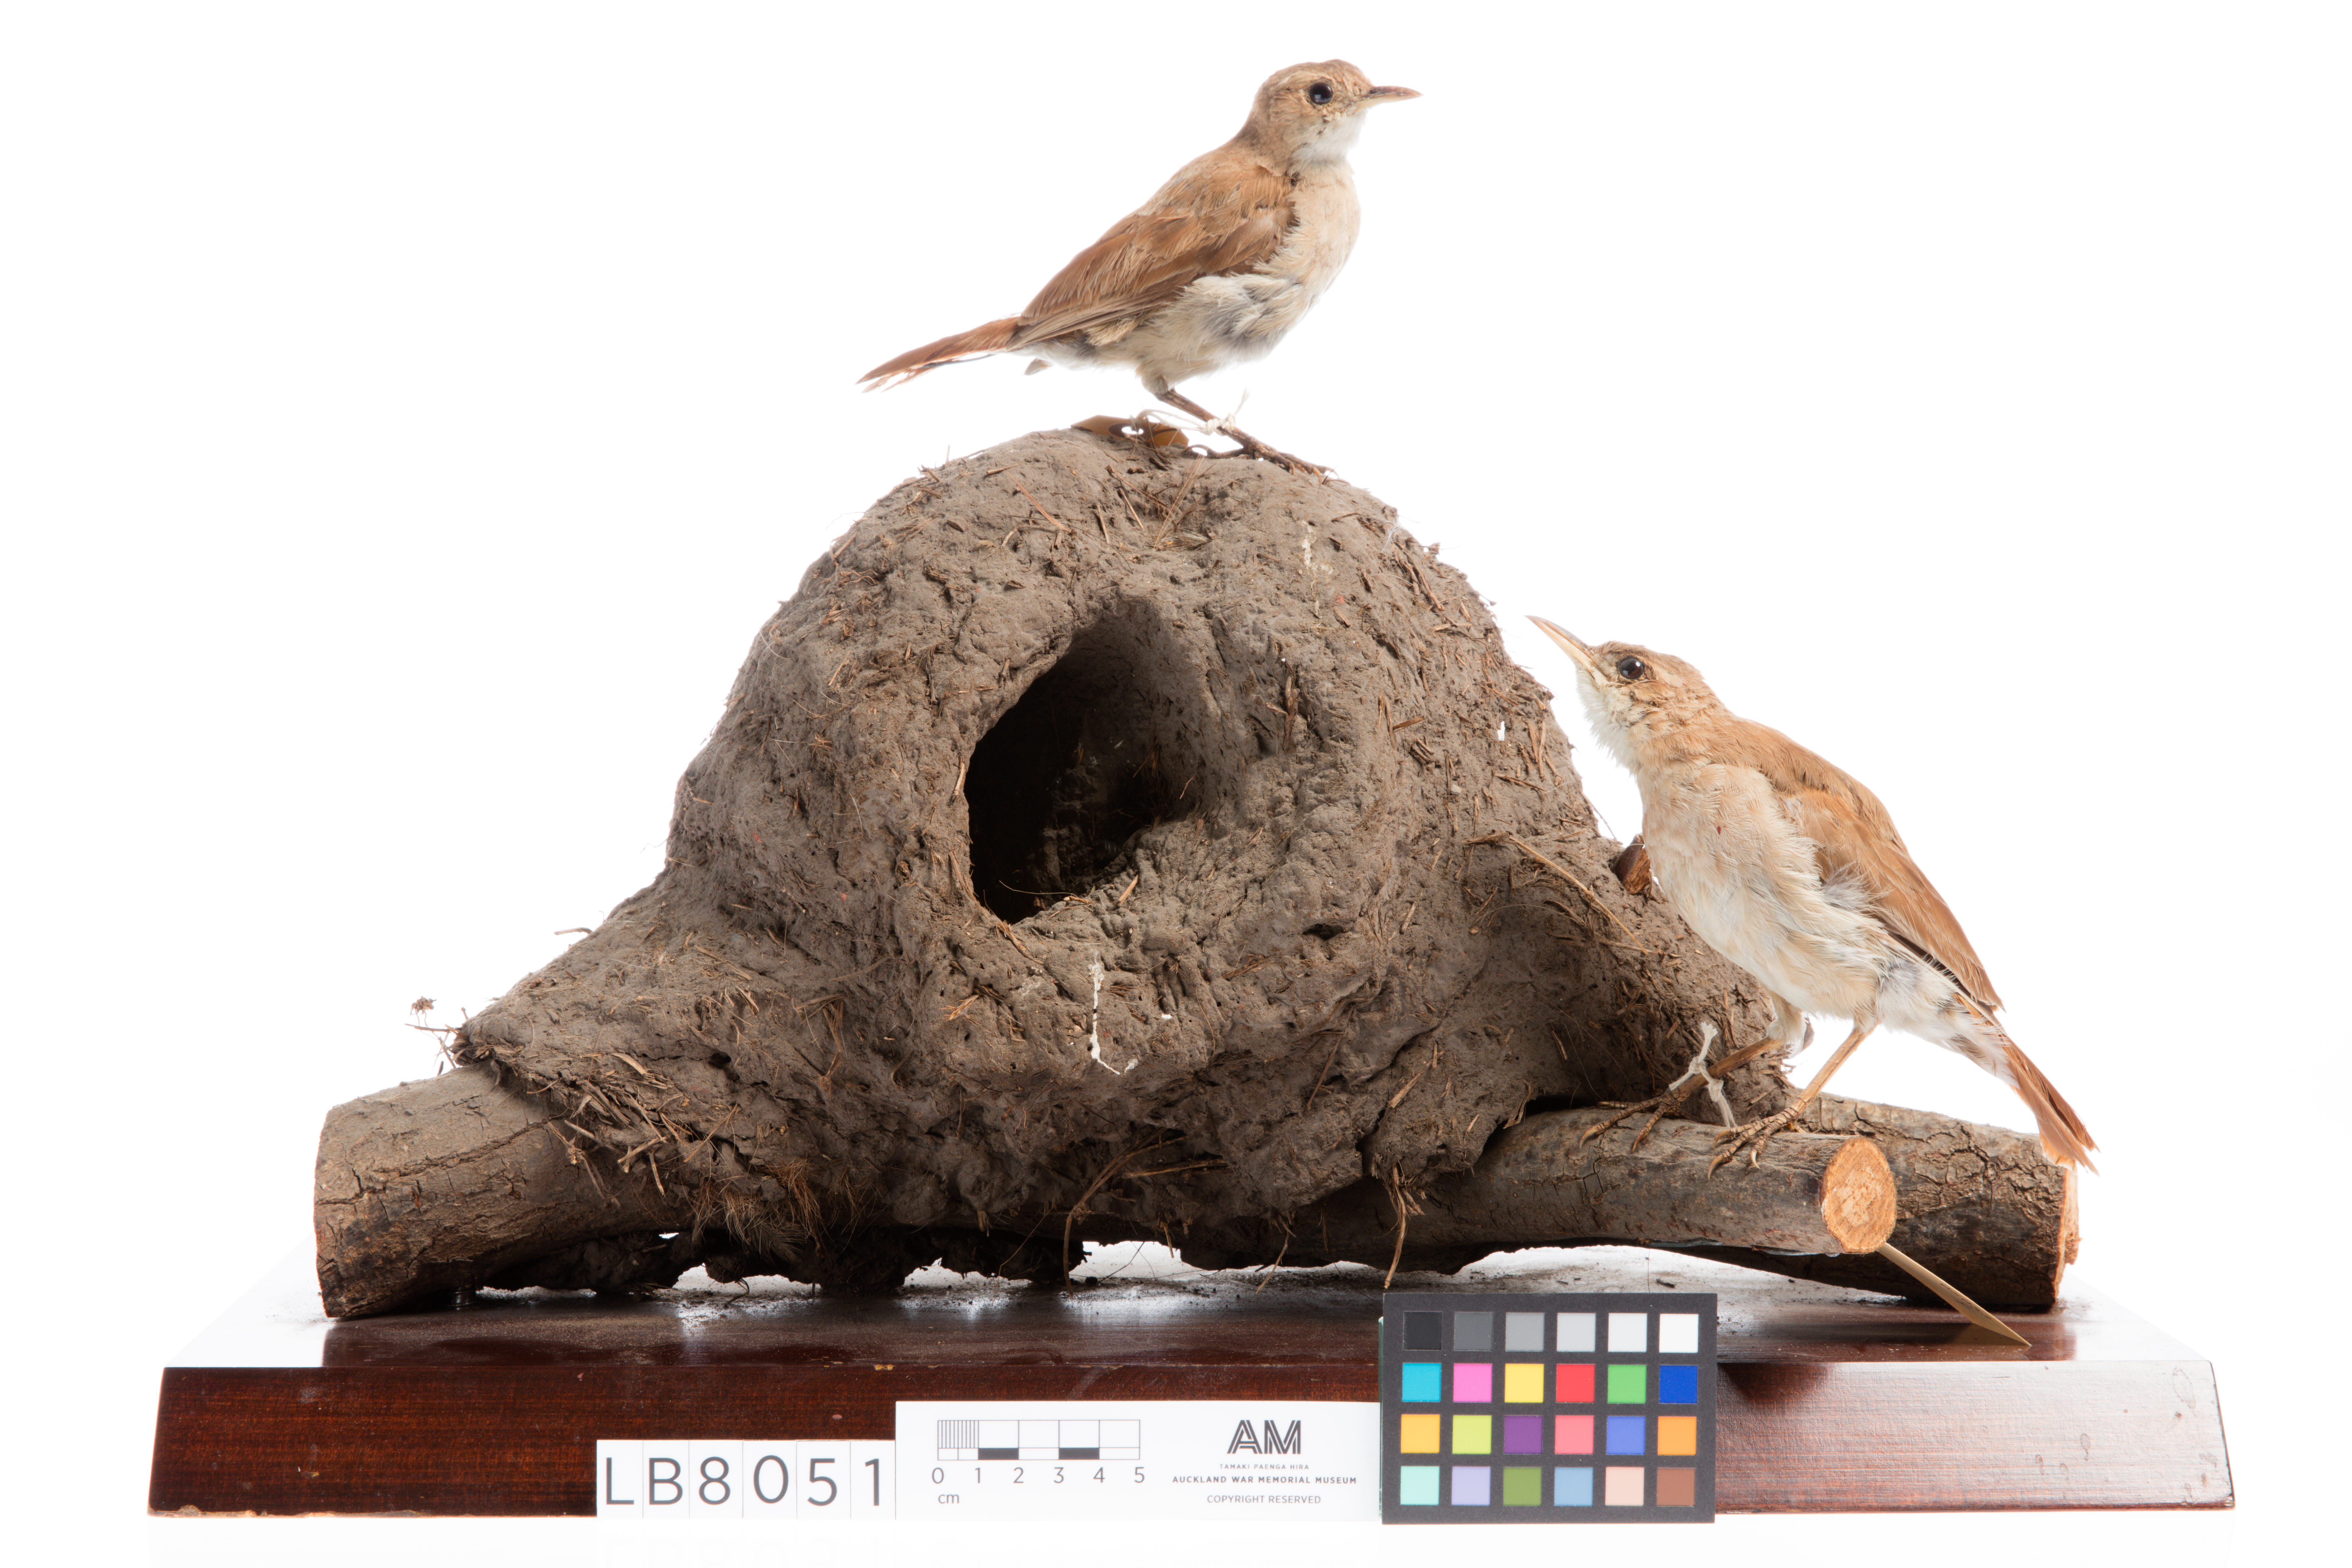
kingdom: Animalia
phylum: Chordata
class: Aves
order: Passeriformes
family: Furnariidae
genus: Furnarius
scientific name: Furnarius rufus
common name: Rufous hornero
